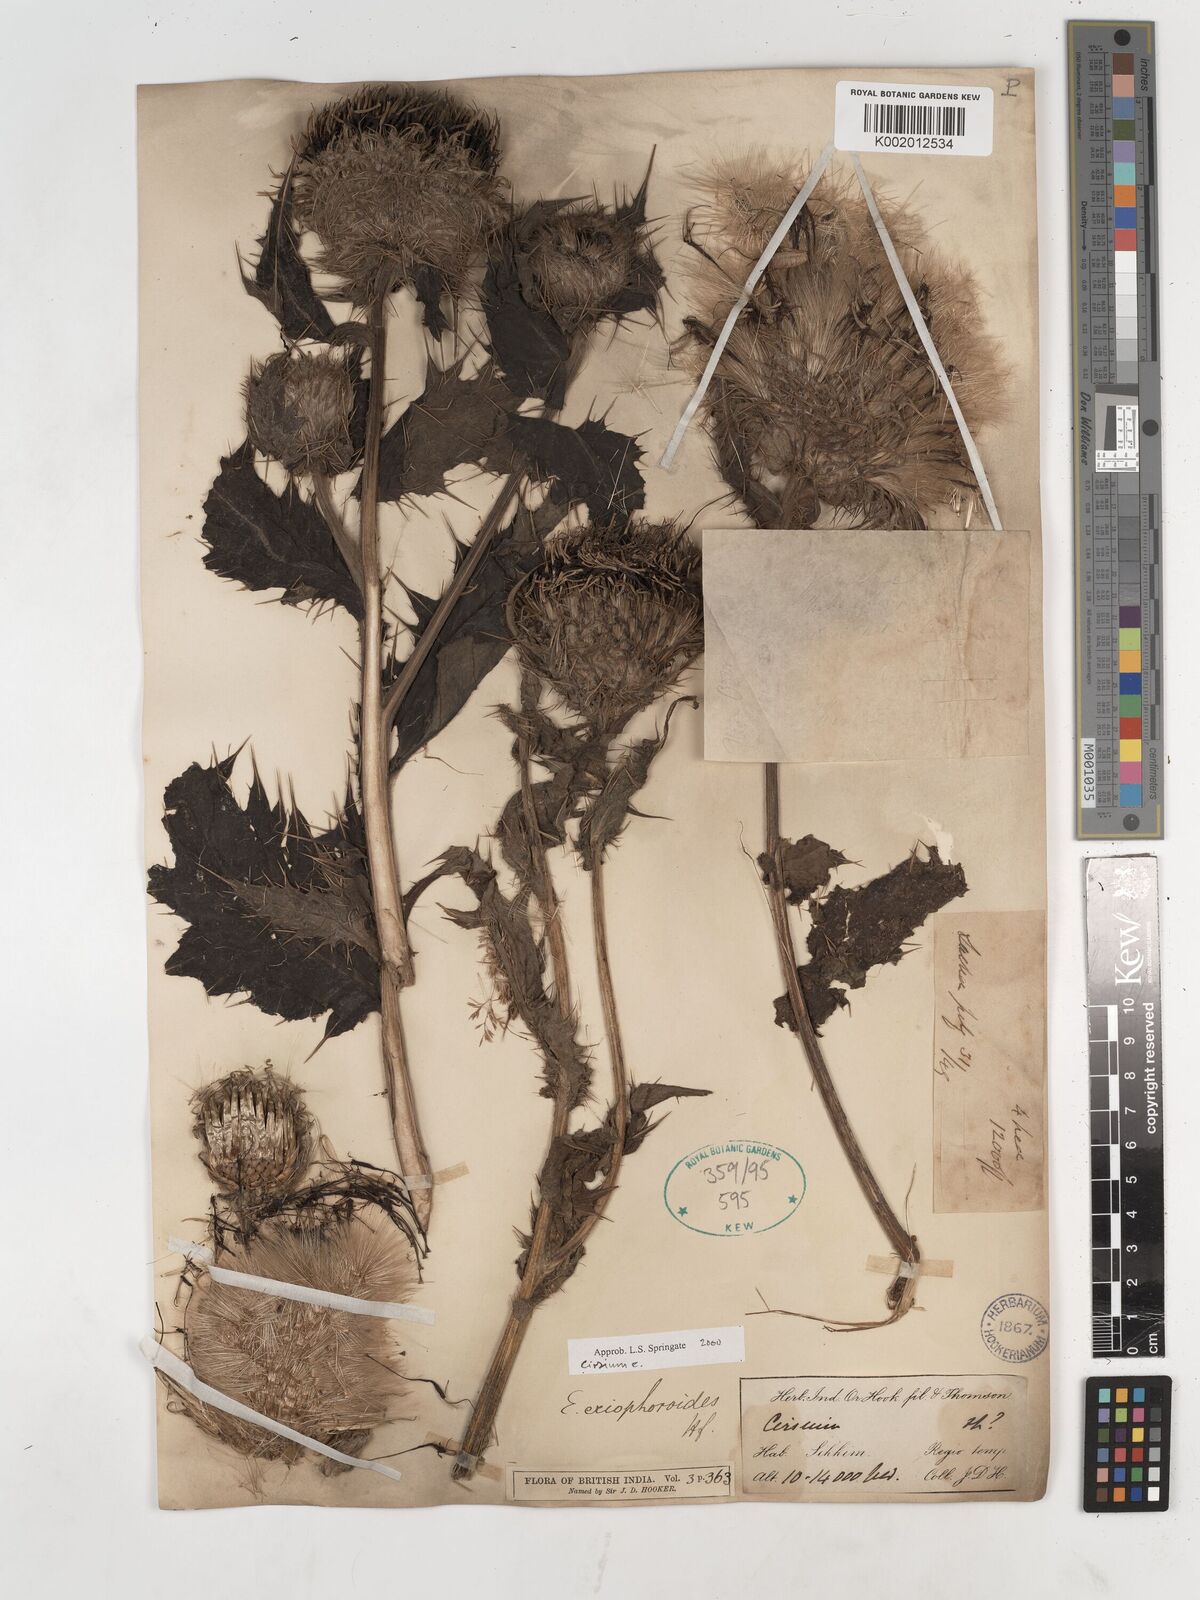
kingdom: Plantae
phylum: Tracheophyta
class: Magnoliopsida
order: Asterales
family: Asteraceae
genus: Cirsium
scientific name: Cirsium eriophoroides
